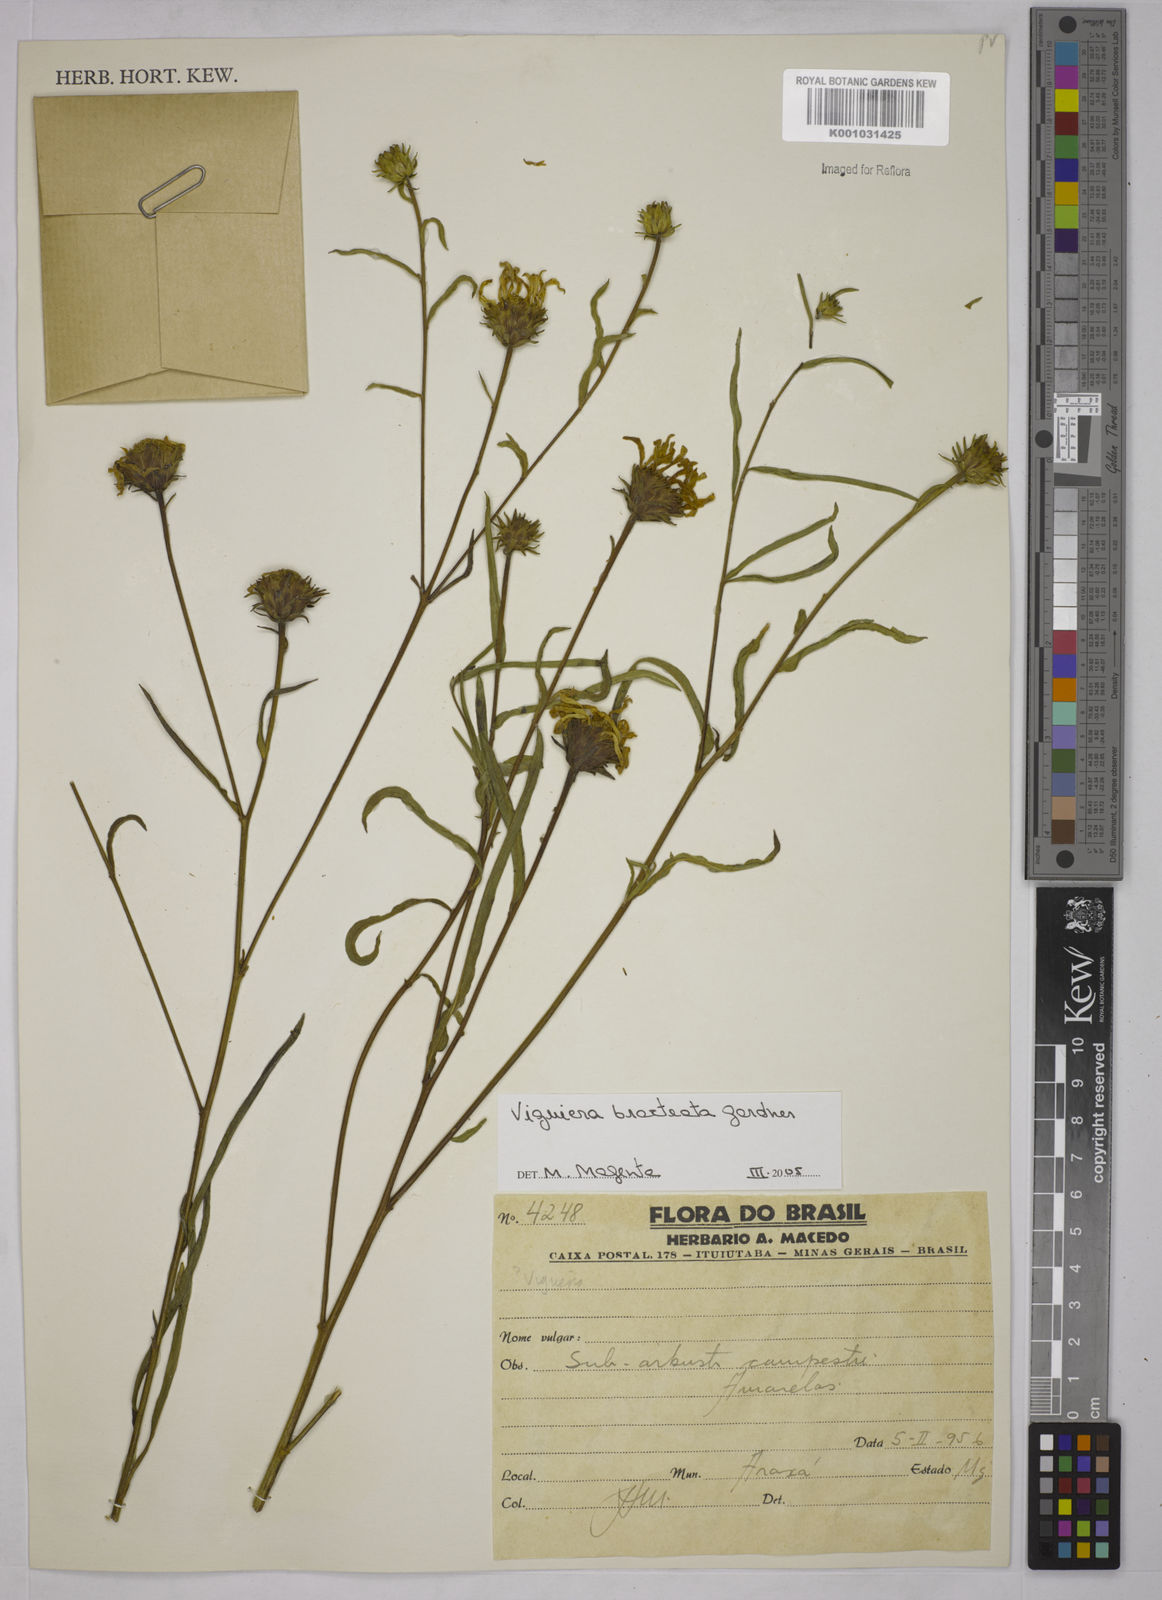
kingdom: Plantae
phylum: Tracheophyta
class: Magnoliopsida
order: Asterales
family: Asteraceae
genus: Aldama
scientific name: Aldama bracteata
